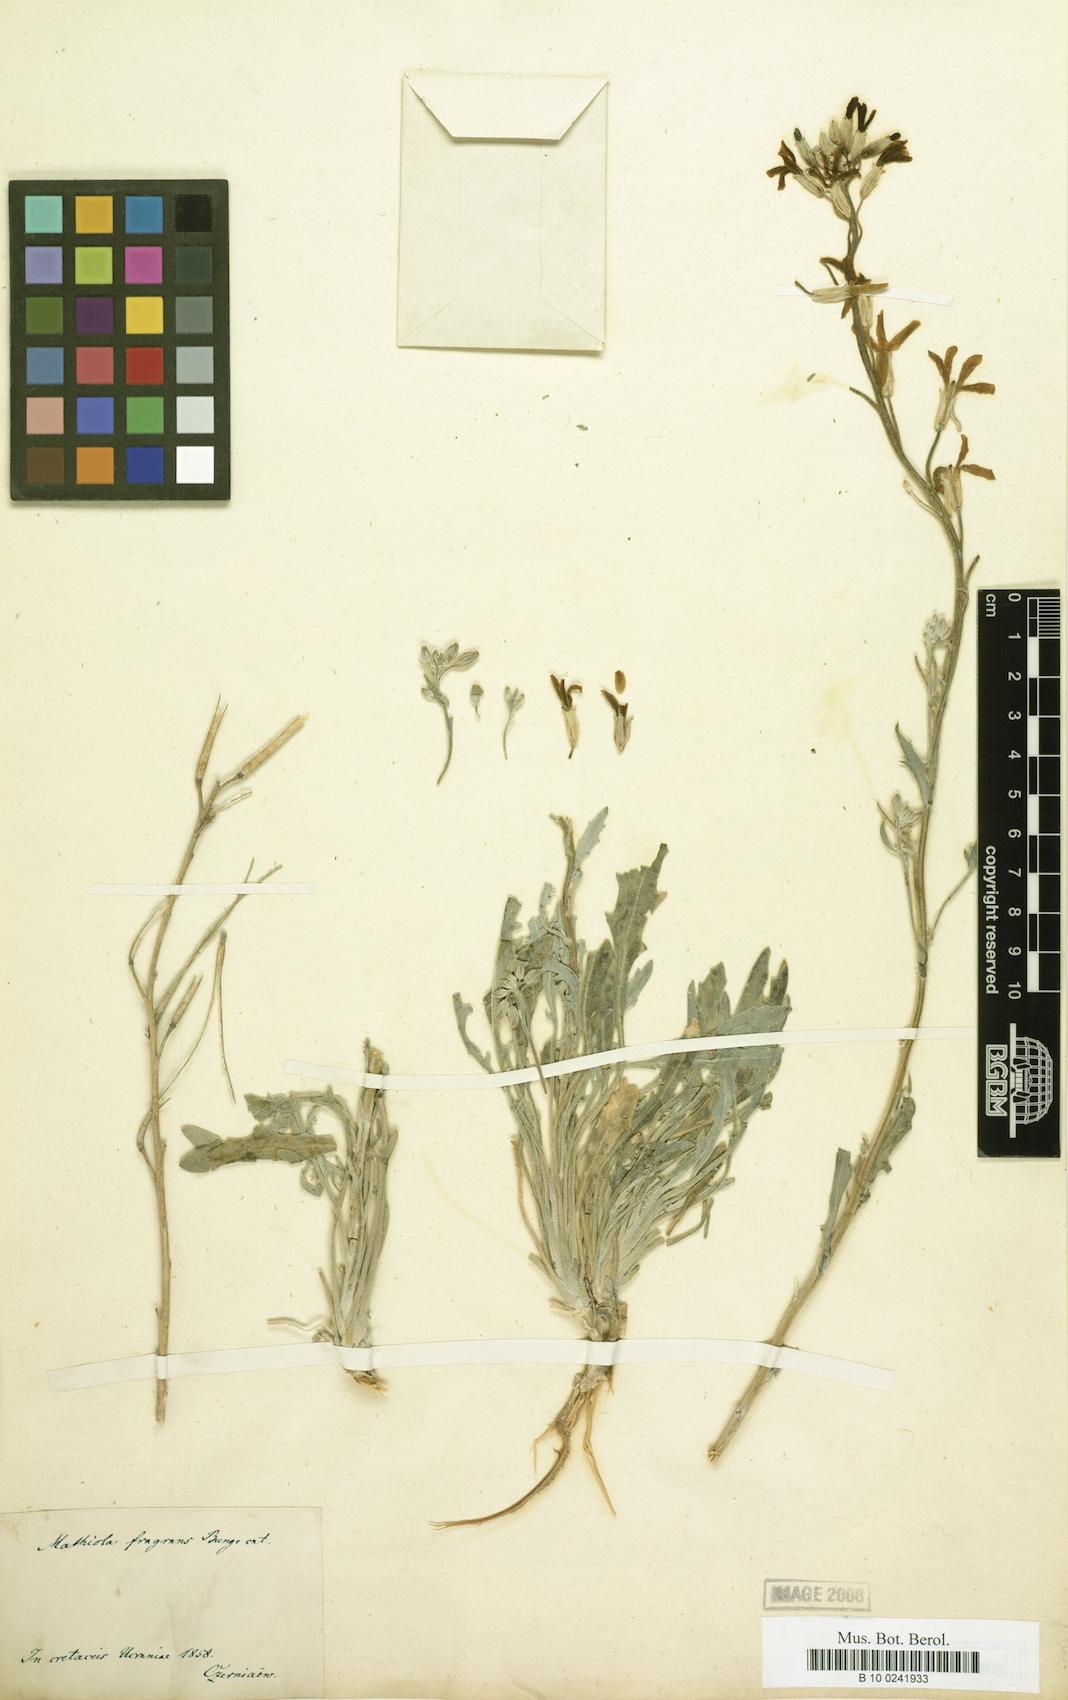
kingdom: Plantae
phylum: Tracheophyta
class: Magnoliopsida
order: Brassicales
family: Brassicaceae
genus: Matthiola
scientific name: Matthiola fragrans
